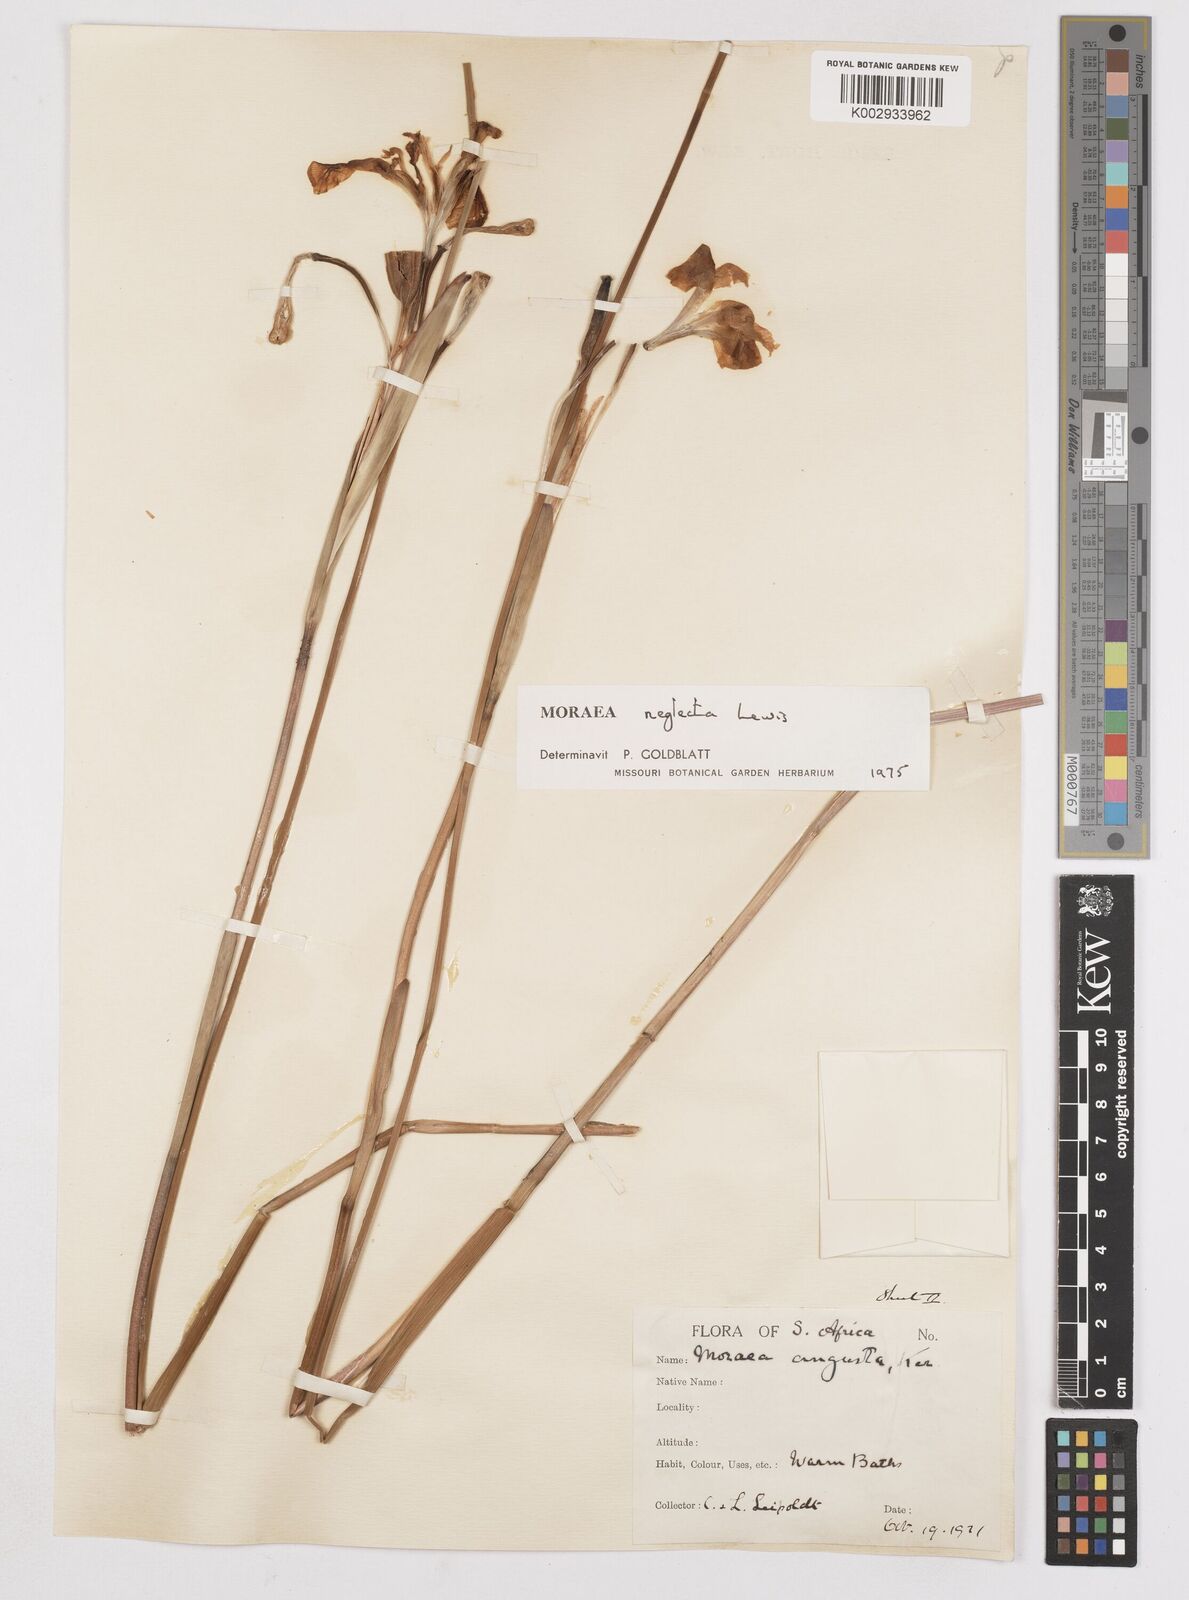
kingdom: Plantae
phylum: Tracheophyta
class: Liliopsida
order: Asparagales
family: Iridaceae
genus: Moraea
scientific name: Moraea neglecta
